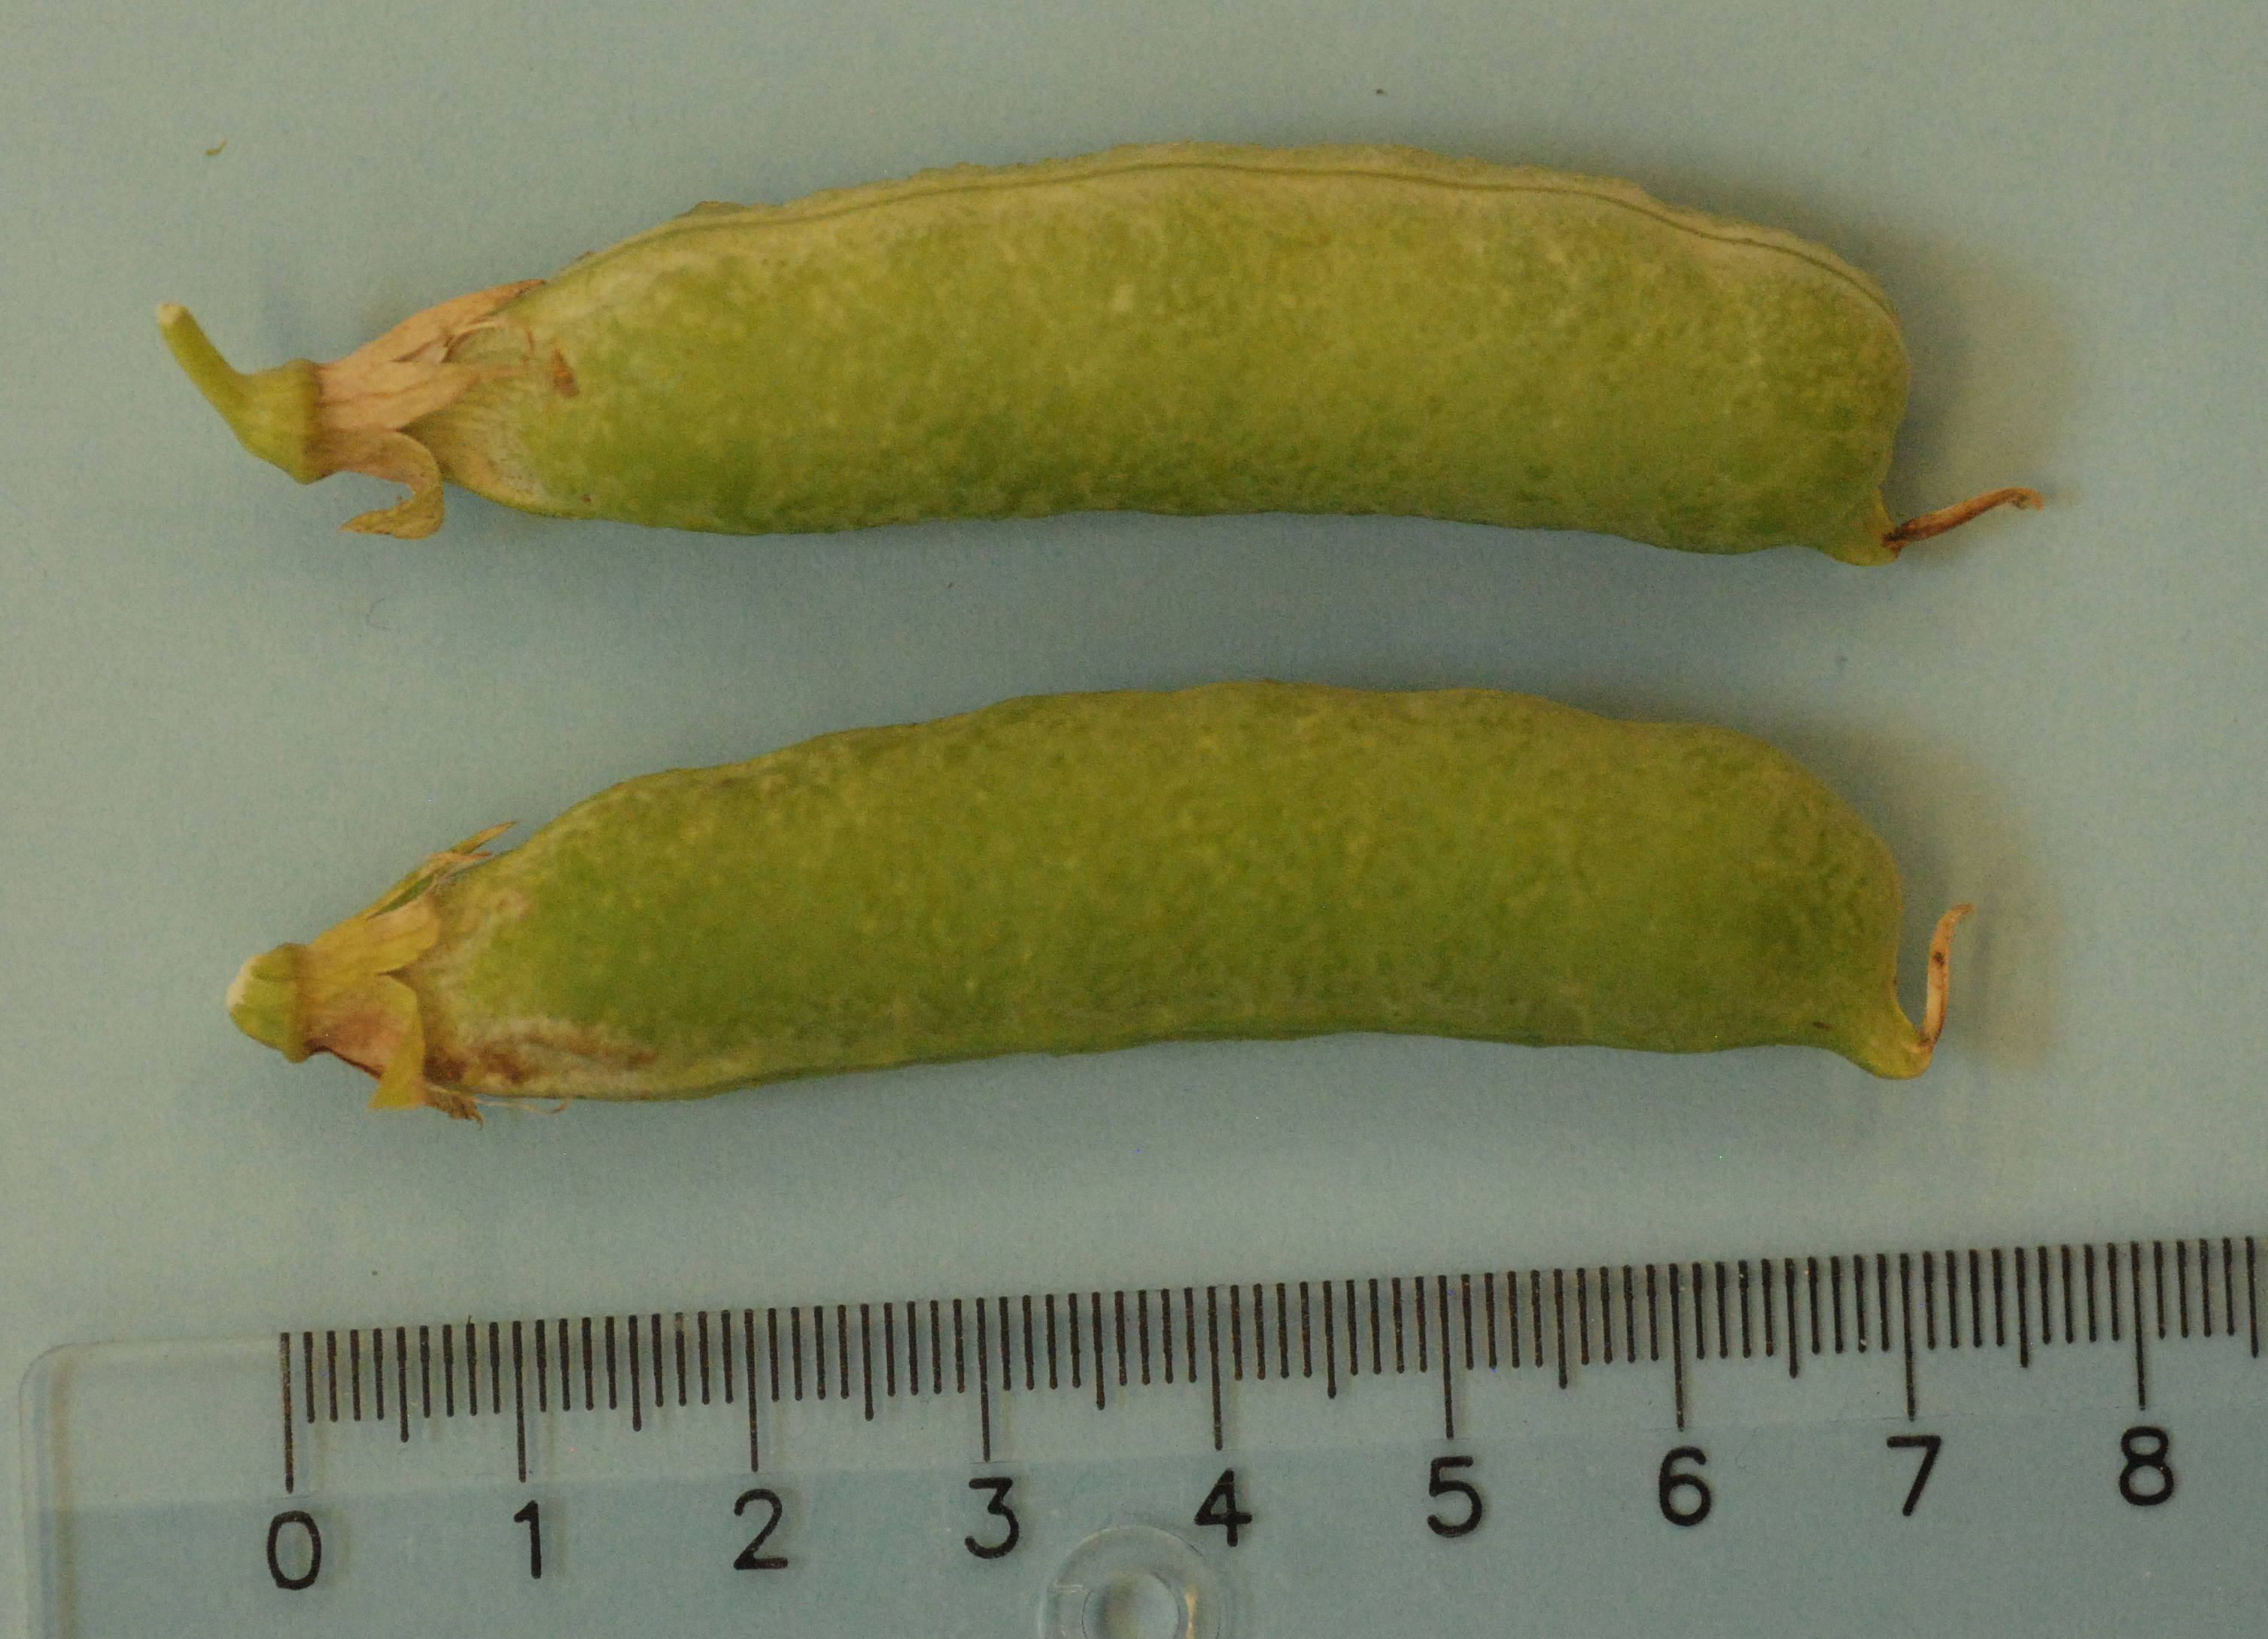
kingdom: Plantae
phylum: Tracheophyta
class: Magnoliopsida
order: Fabales
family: Fabaceae
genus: Lathyrus
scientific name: Lathyrus oleraceus
